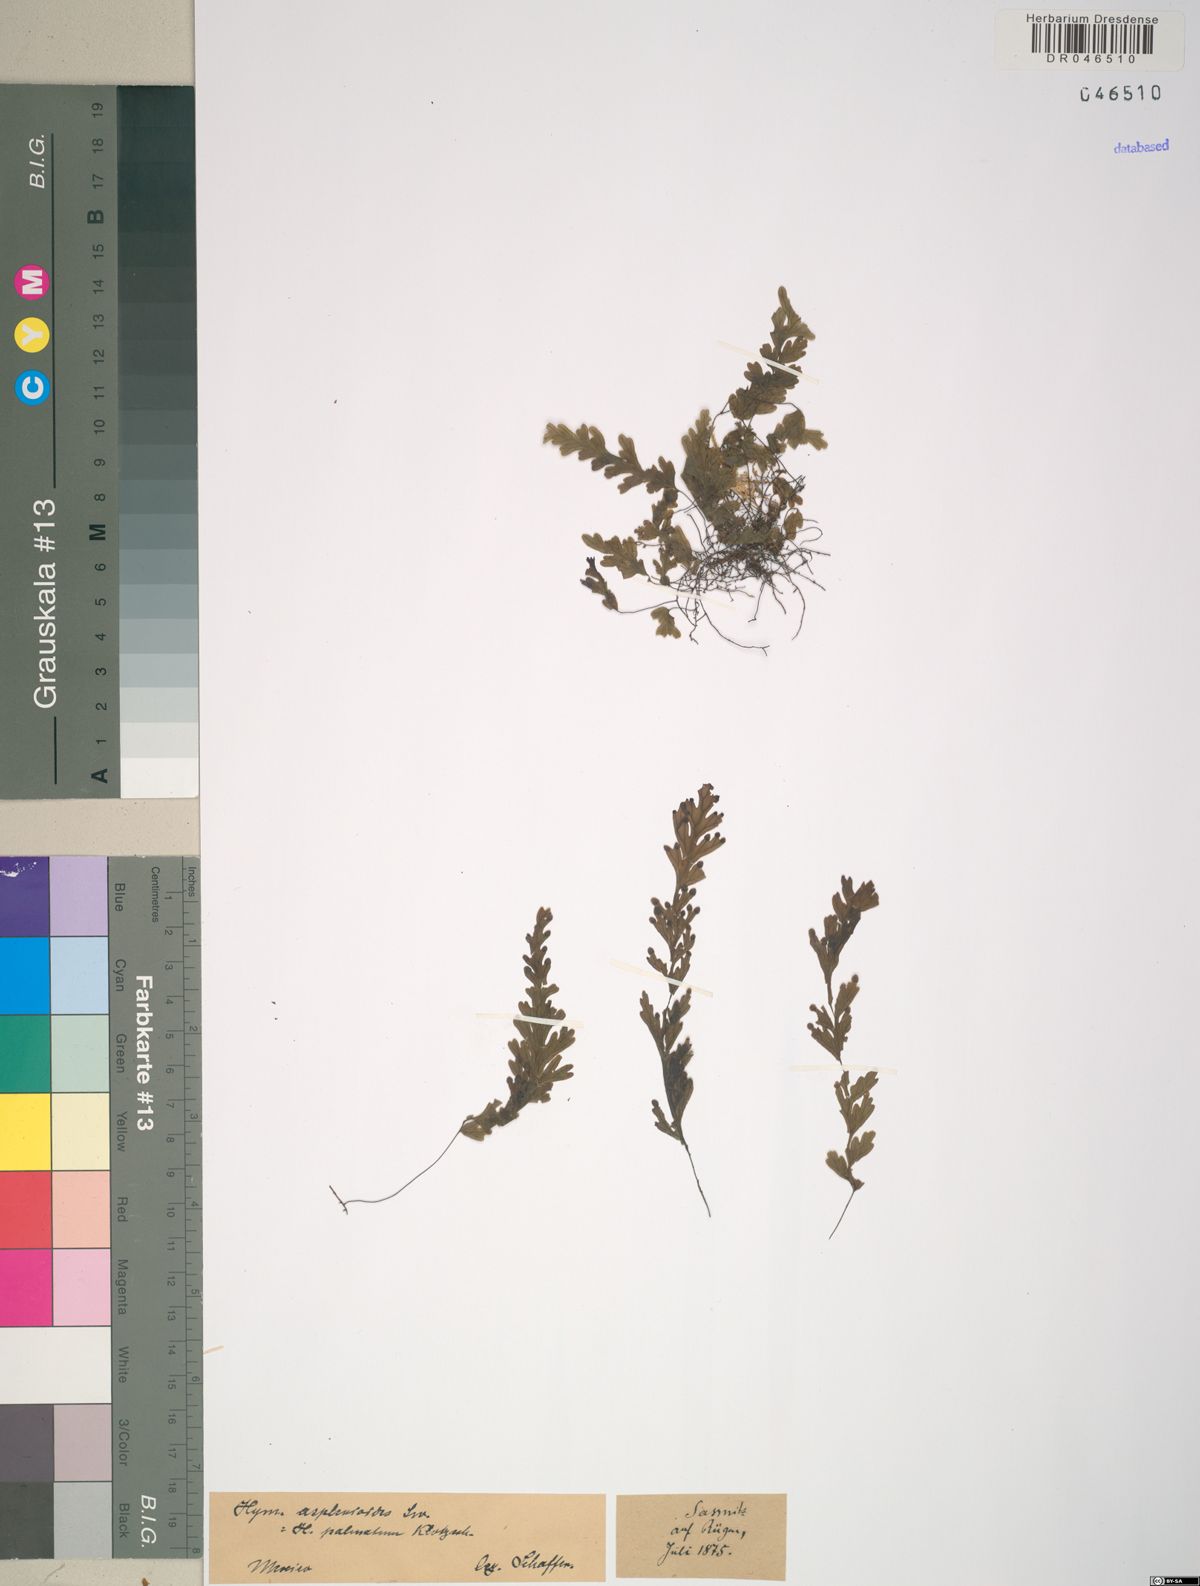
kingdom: Plantae
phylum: Tracheophyta
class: Polypodiopsida
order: Hymenophyllales
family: Hymenophyllaceae
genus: Hymenophyllum
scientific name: Hymenophyllum asplenioides
